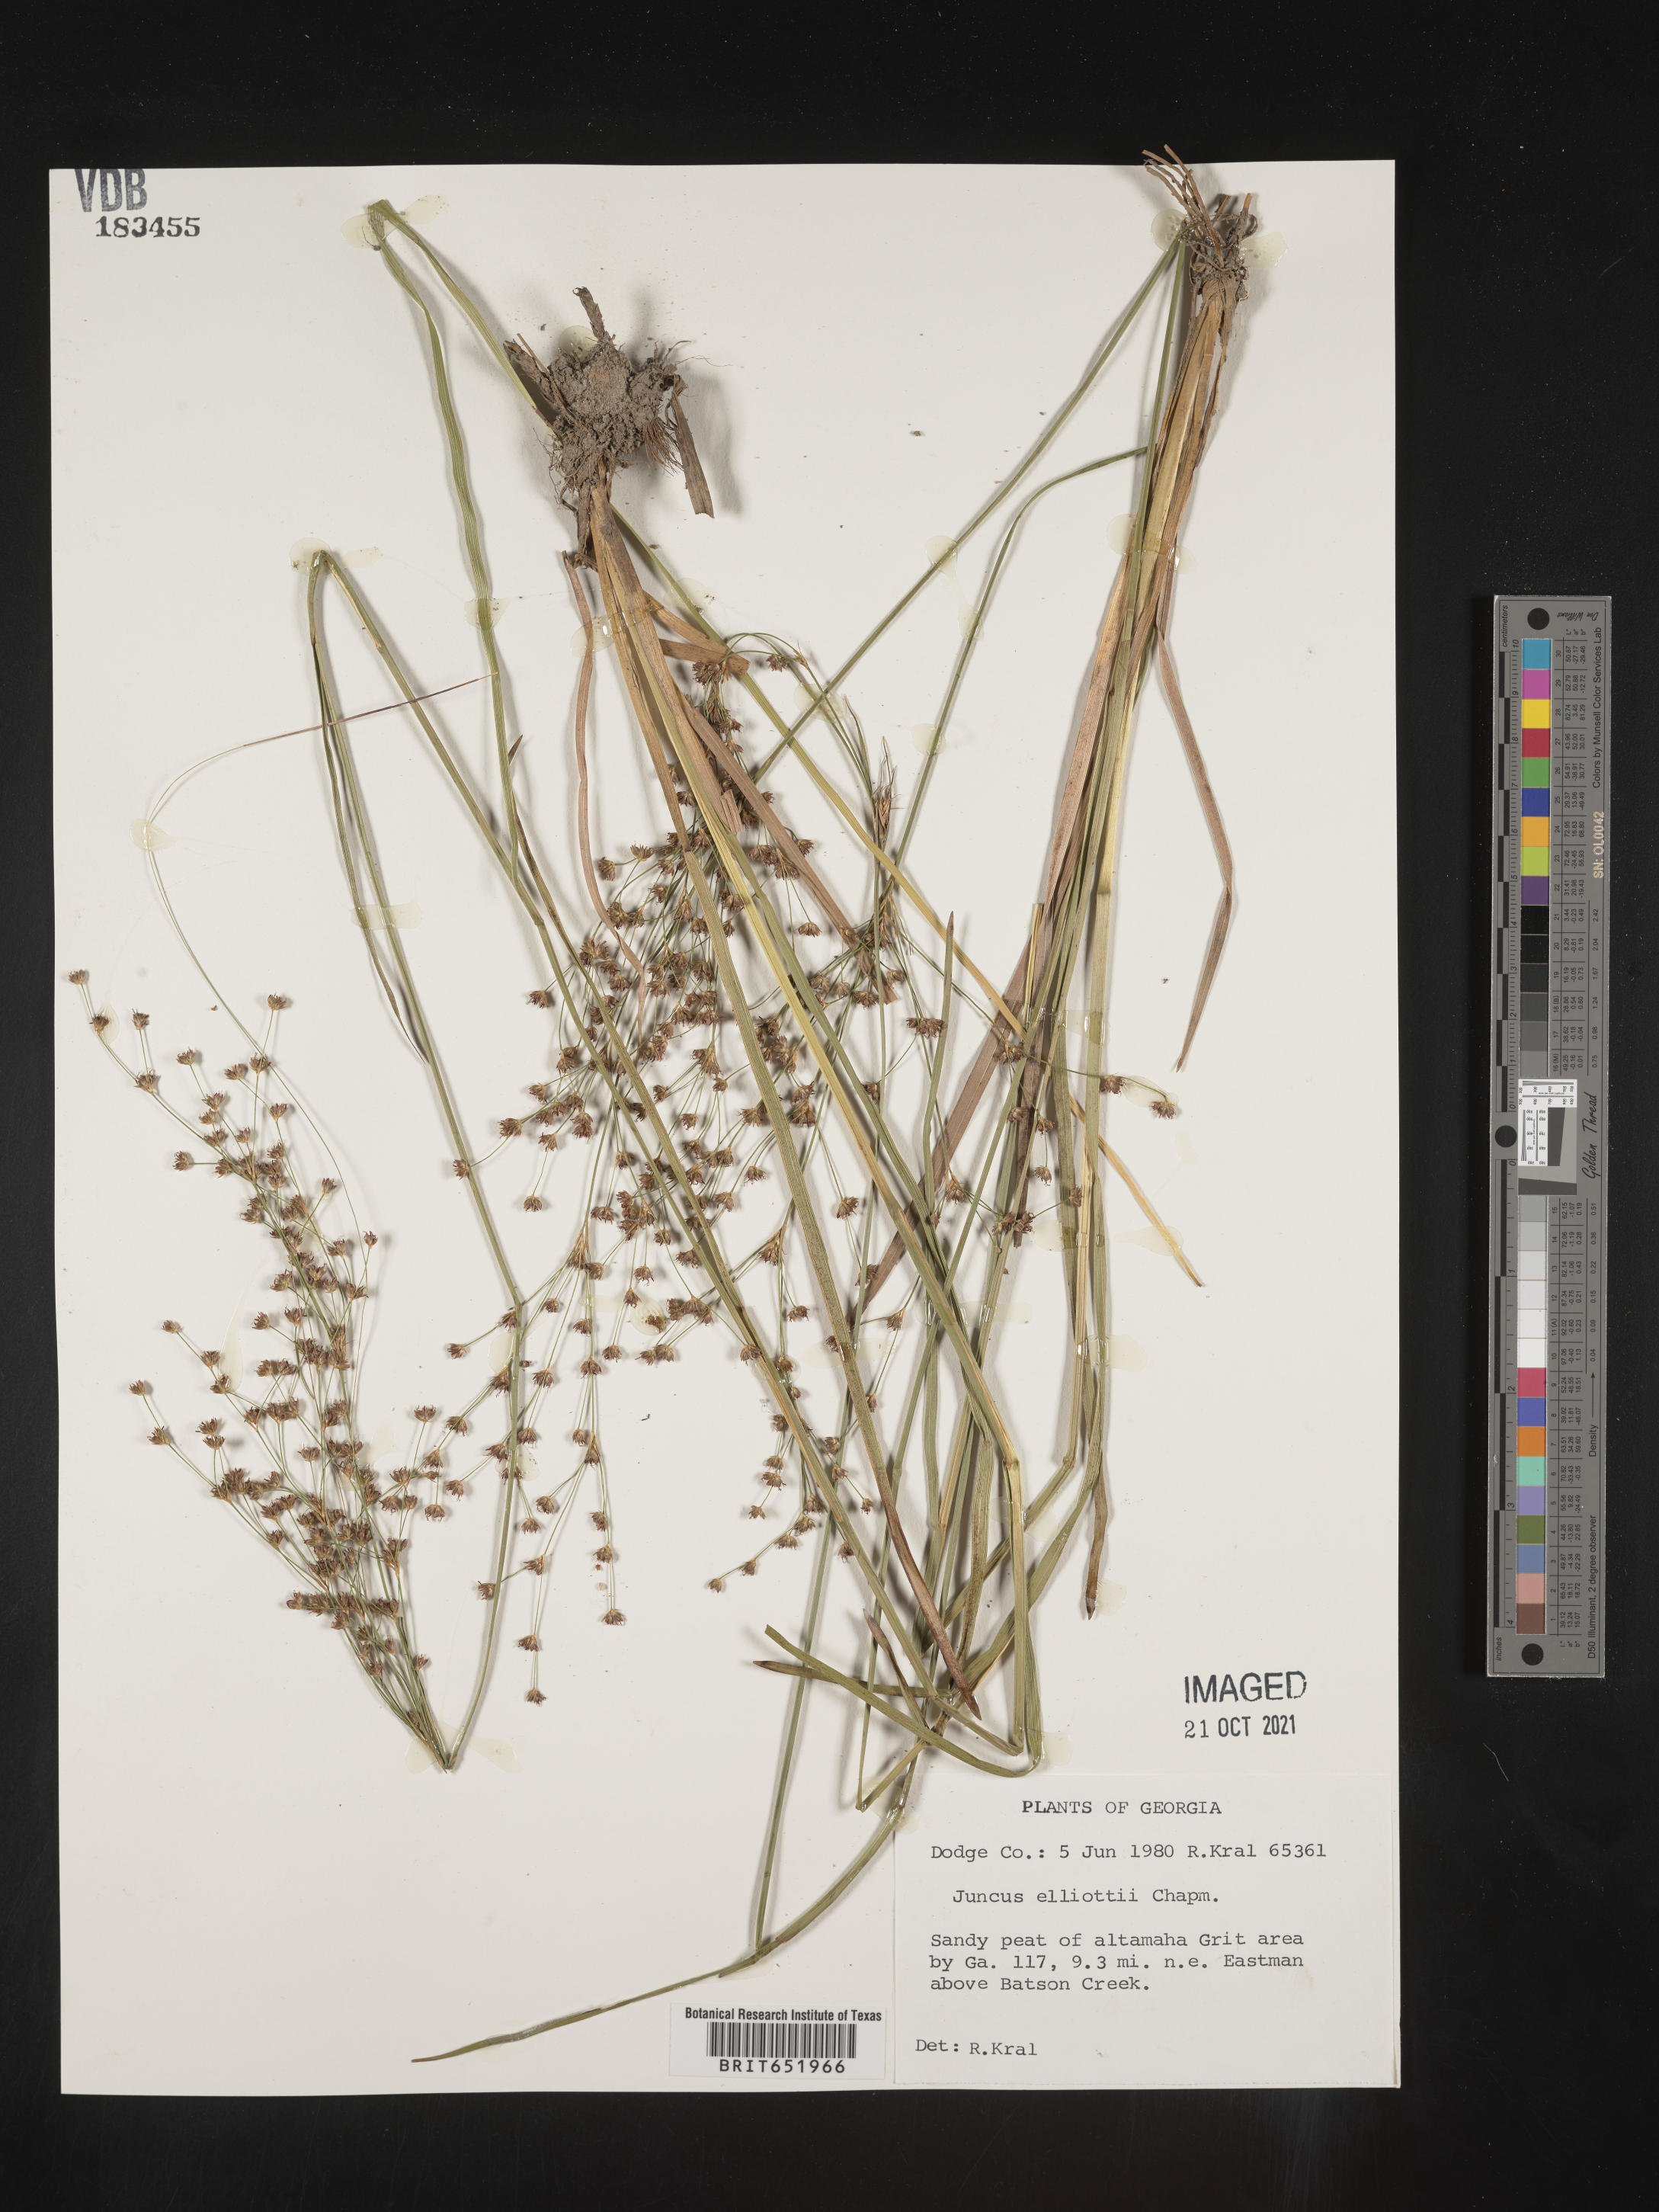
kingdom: Plantae
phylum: Tracheophyta
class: Liliopsida
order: Poales
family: Juncaceae
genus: Juncus
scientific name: Juncus elliottii
